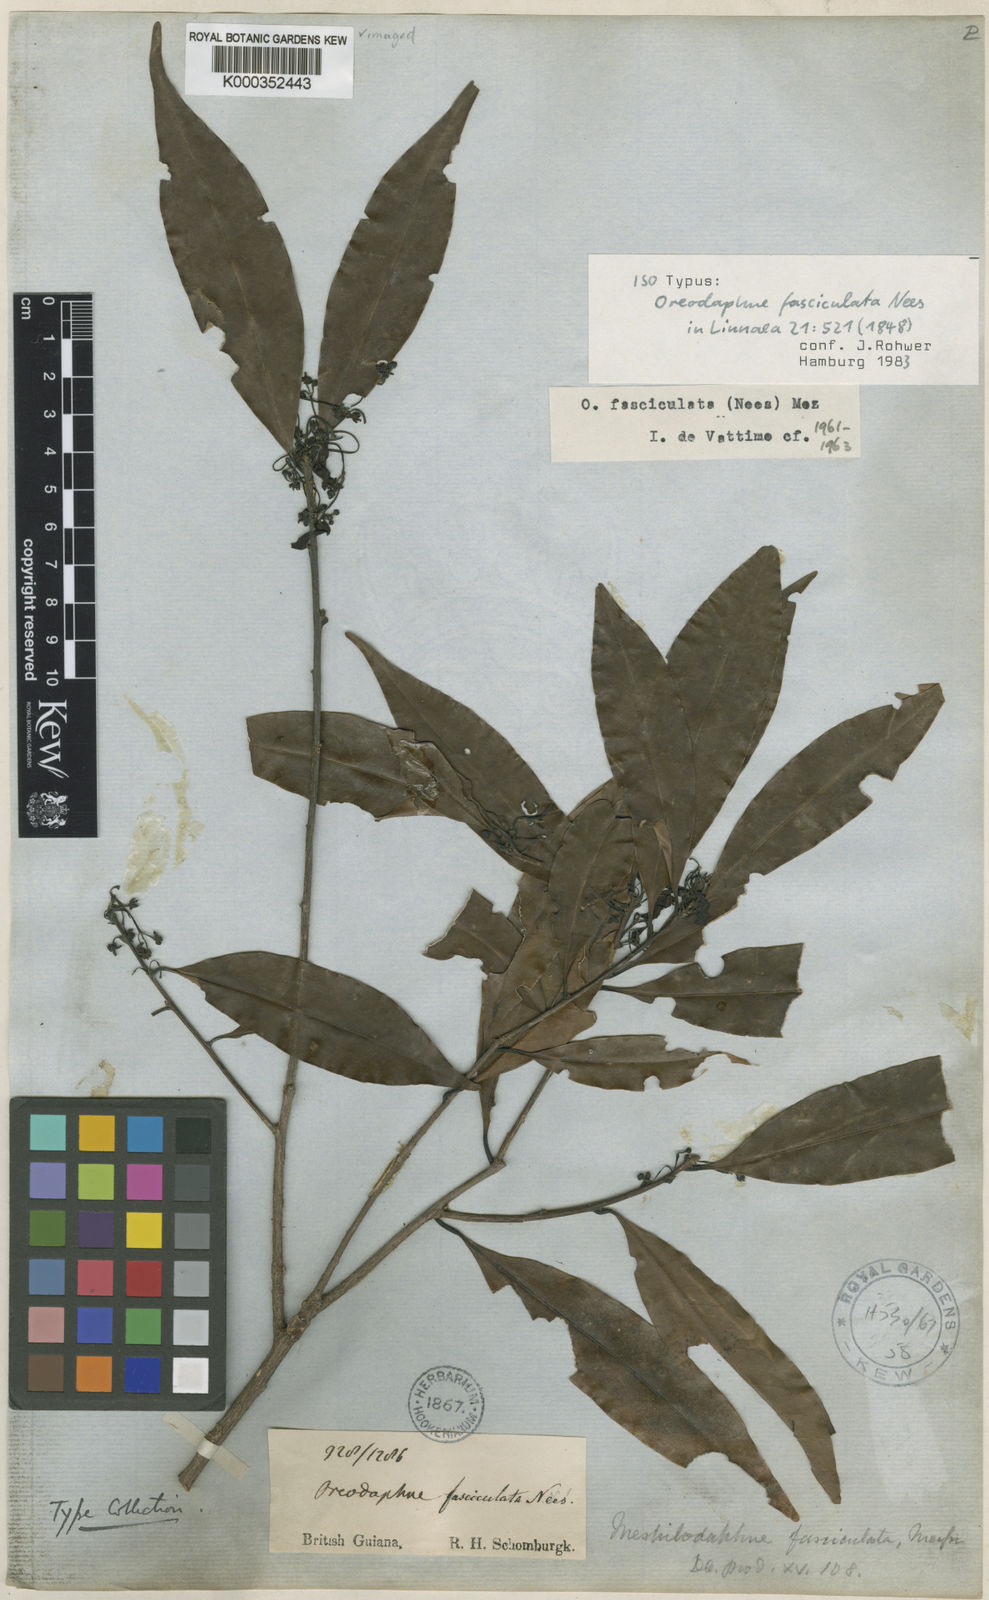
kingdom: Plantae
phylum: Tracheophyta
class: Magnoliopsida
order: Laurales
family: Lauraceae
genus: Mespilodaphne
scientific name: Mespilodaphne fasciculata
